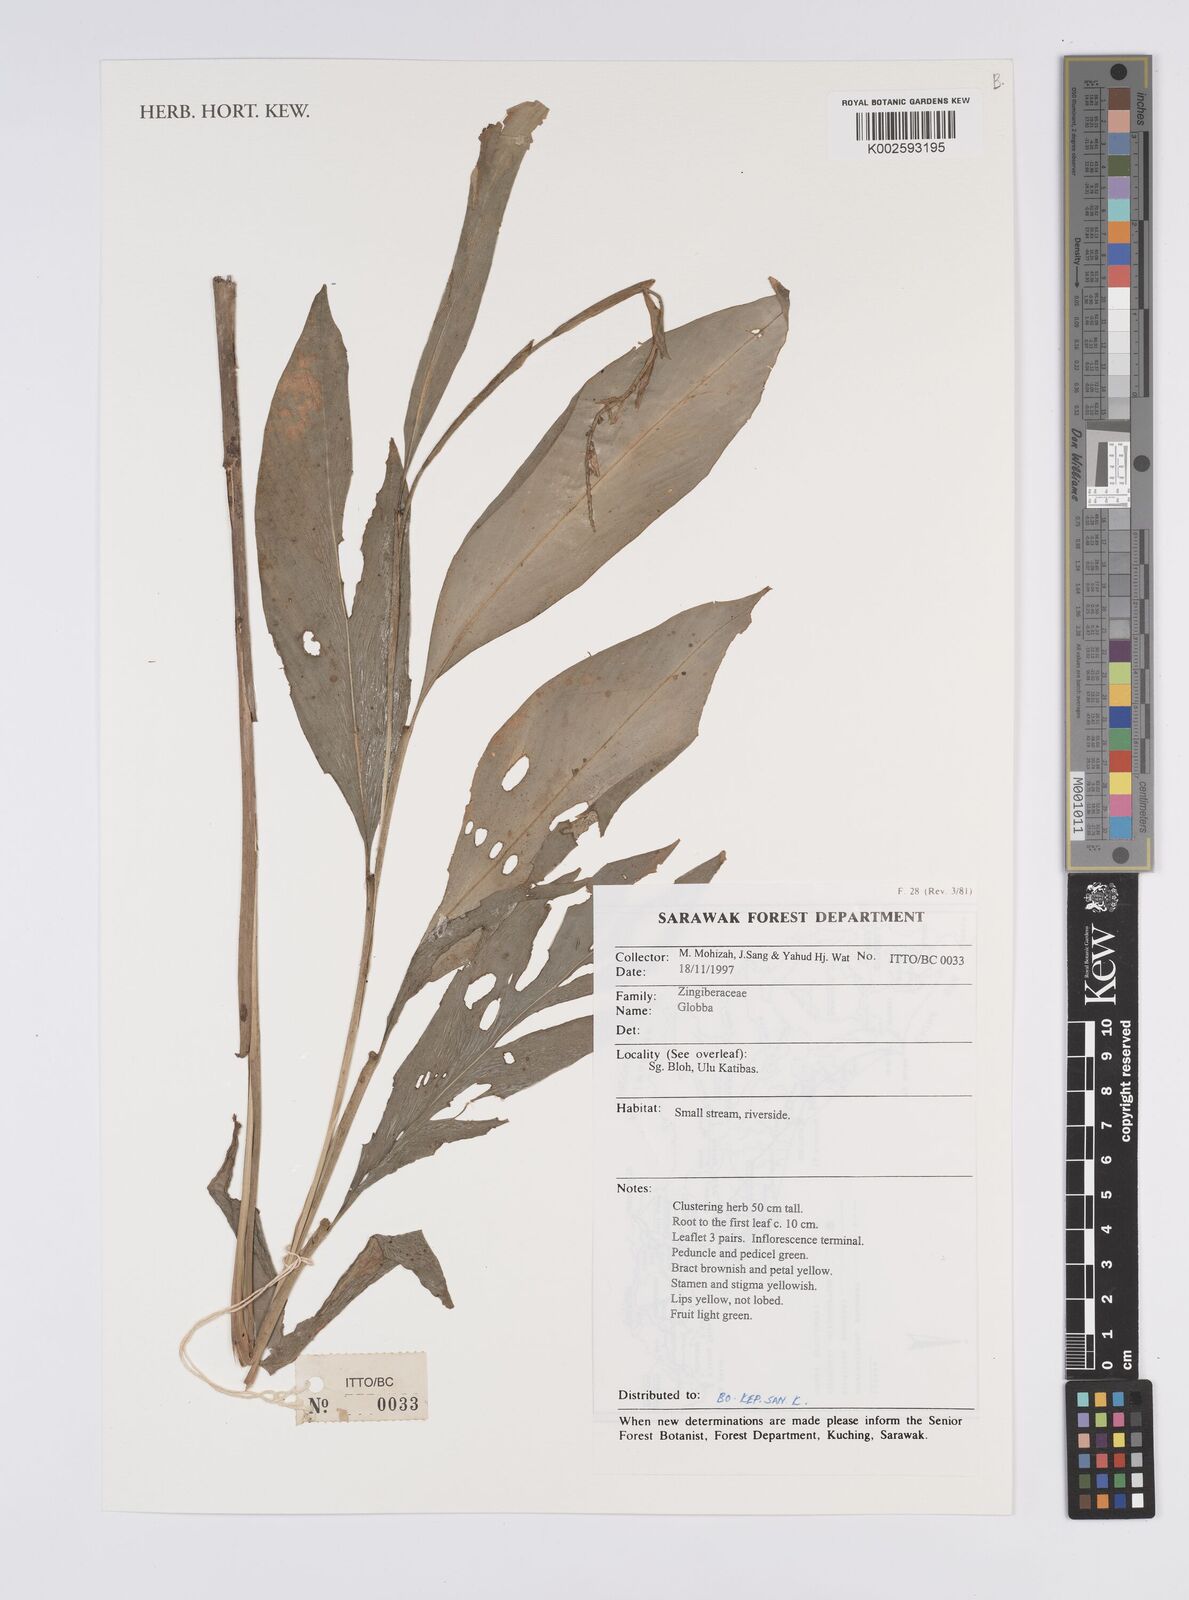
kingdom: Plantae
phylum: Tracheophyta
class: Liliopsida
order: Zingiberales
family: Zingiberaceae
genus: Globba
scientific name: Globba
